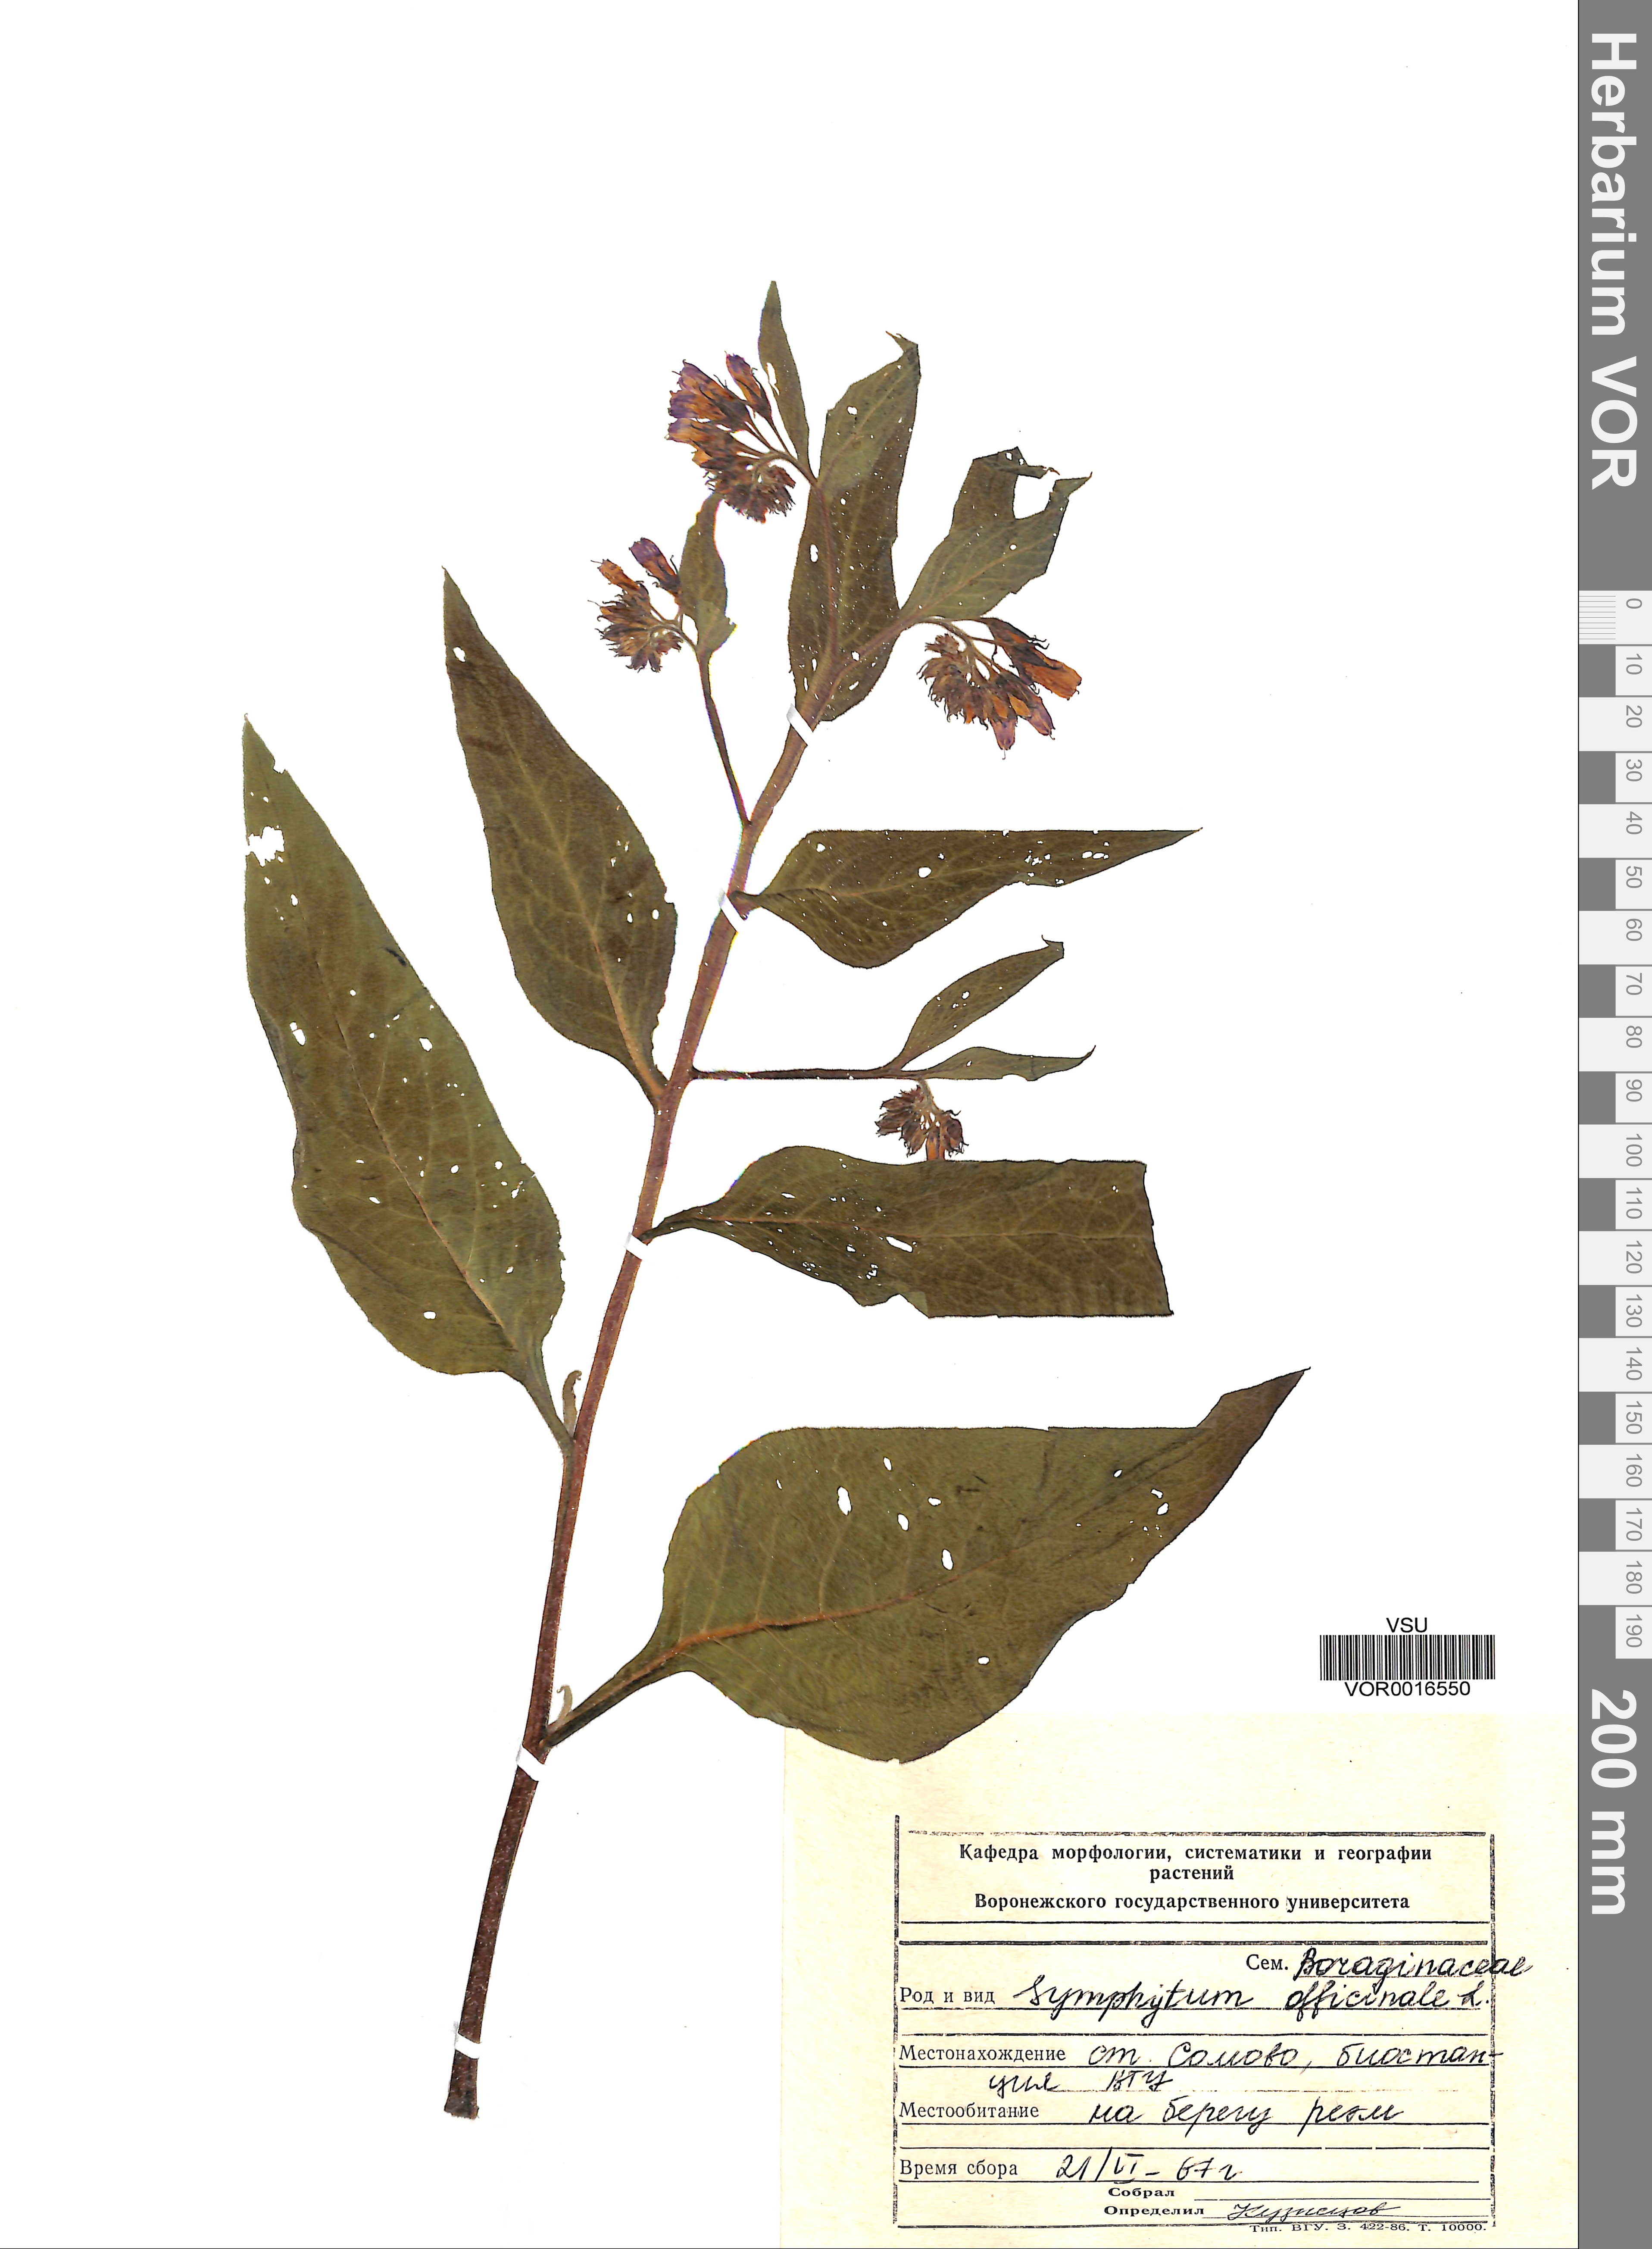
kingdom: Plantae
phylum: Tracheophyta
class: Magnoliopsida
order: Boraginales
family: Boraginaceae
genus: Symphytum
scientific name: Symphytum officinale
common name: Common comfrey
